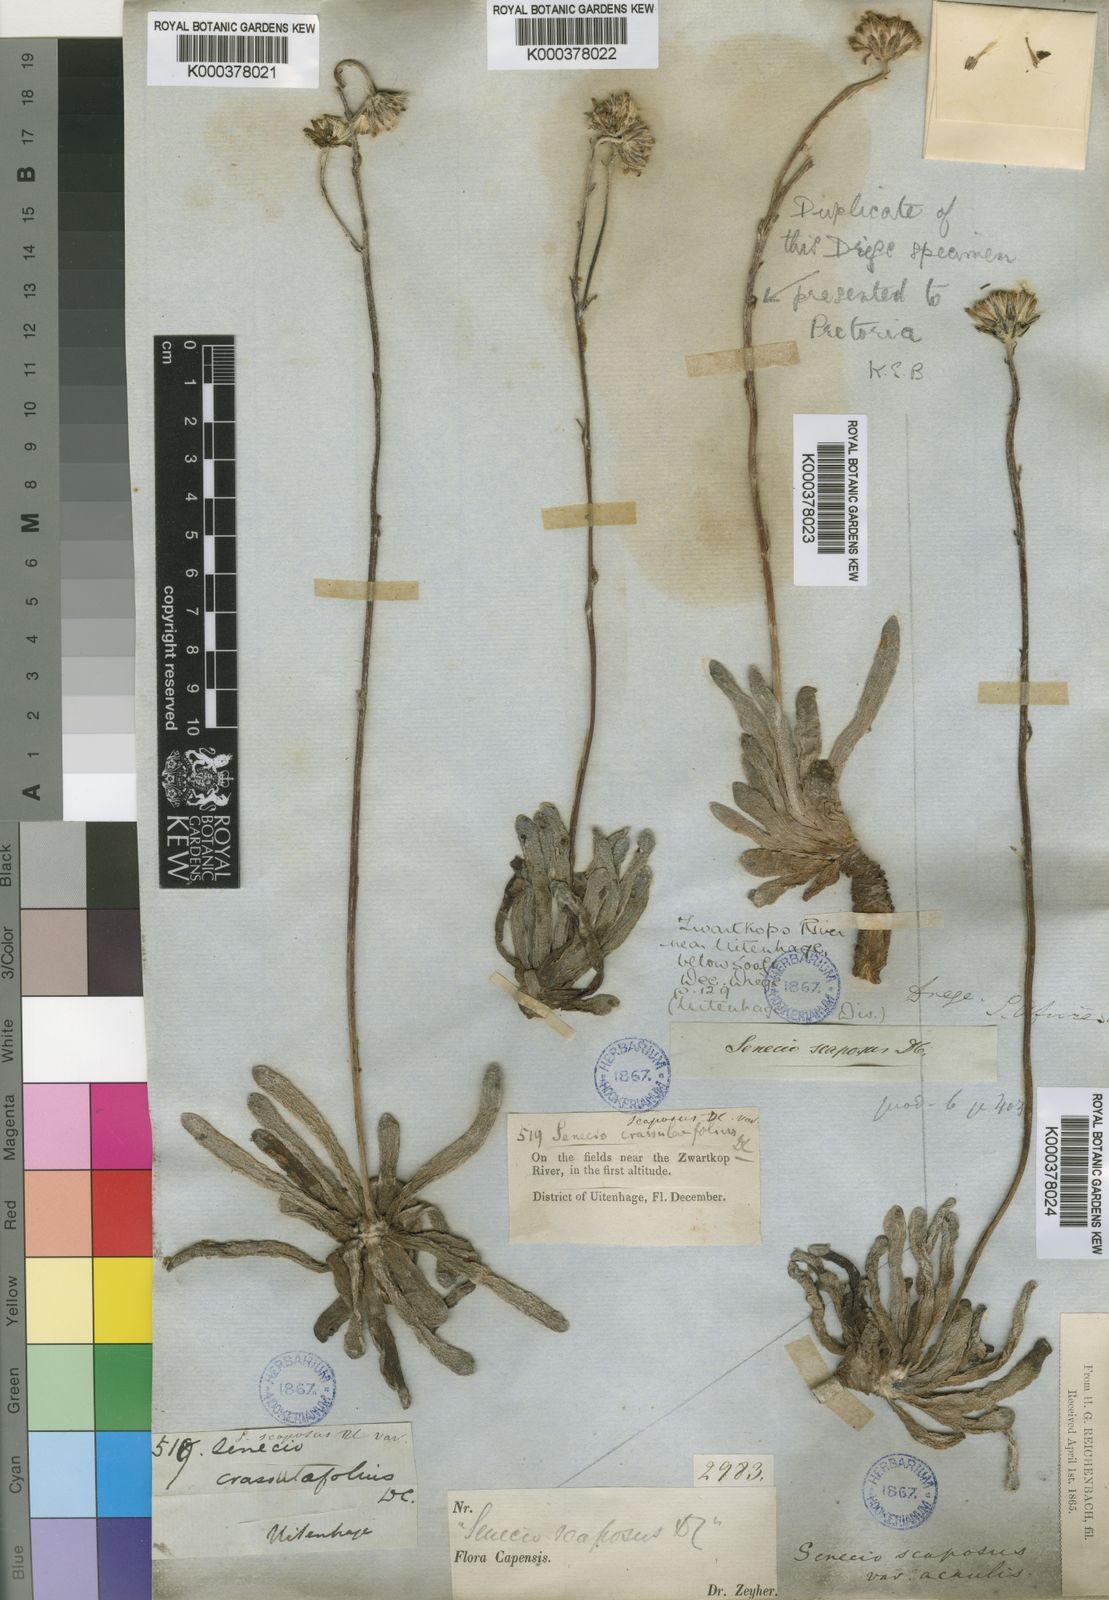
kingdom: Plantae
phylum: Tracheophyta
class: Magnoliopsida
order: Asterales
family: Asteraceae
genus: Caputia
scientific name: Caputia scaposa
